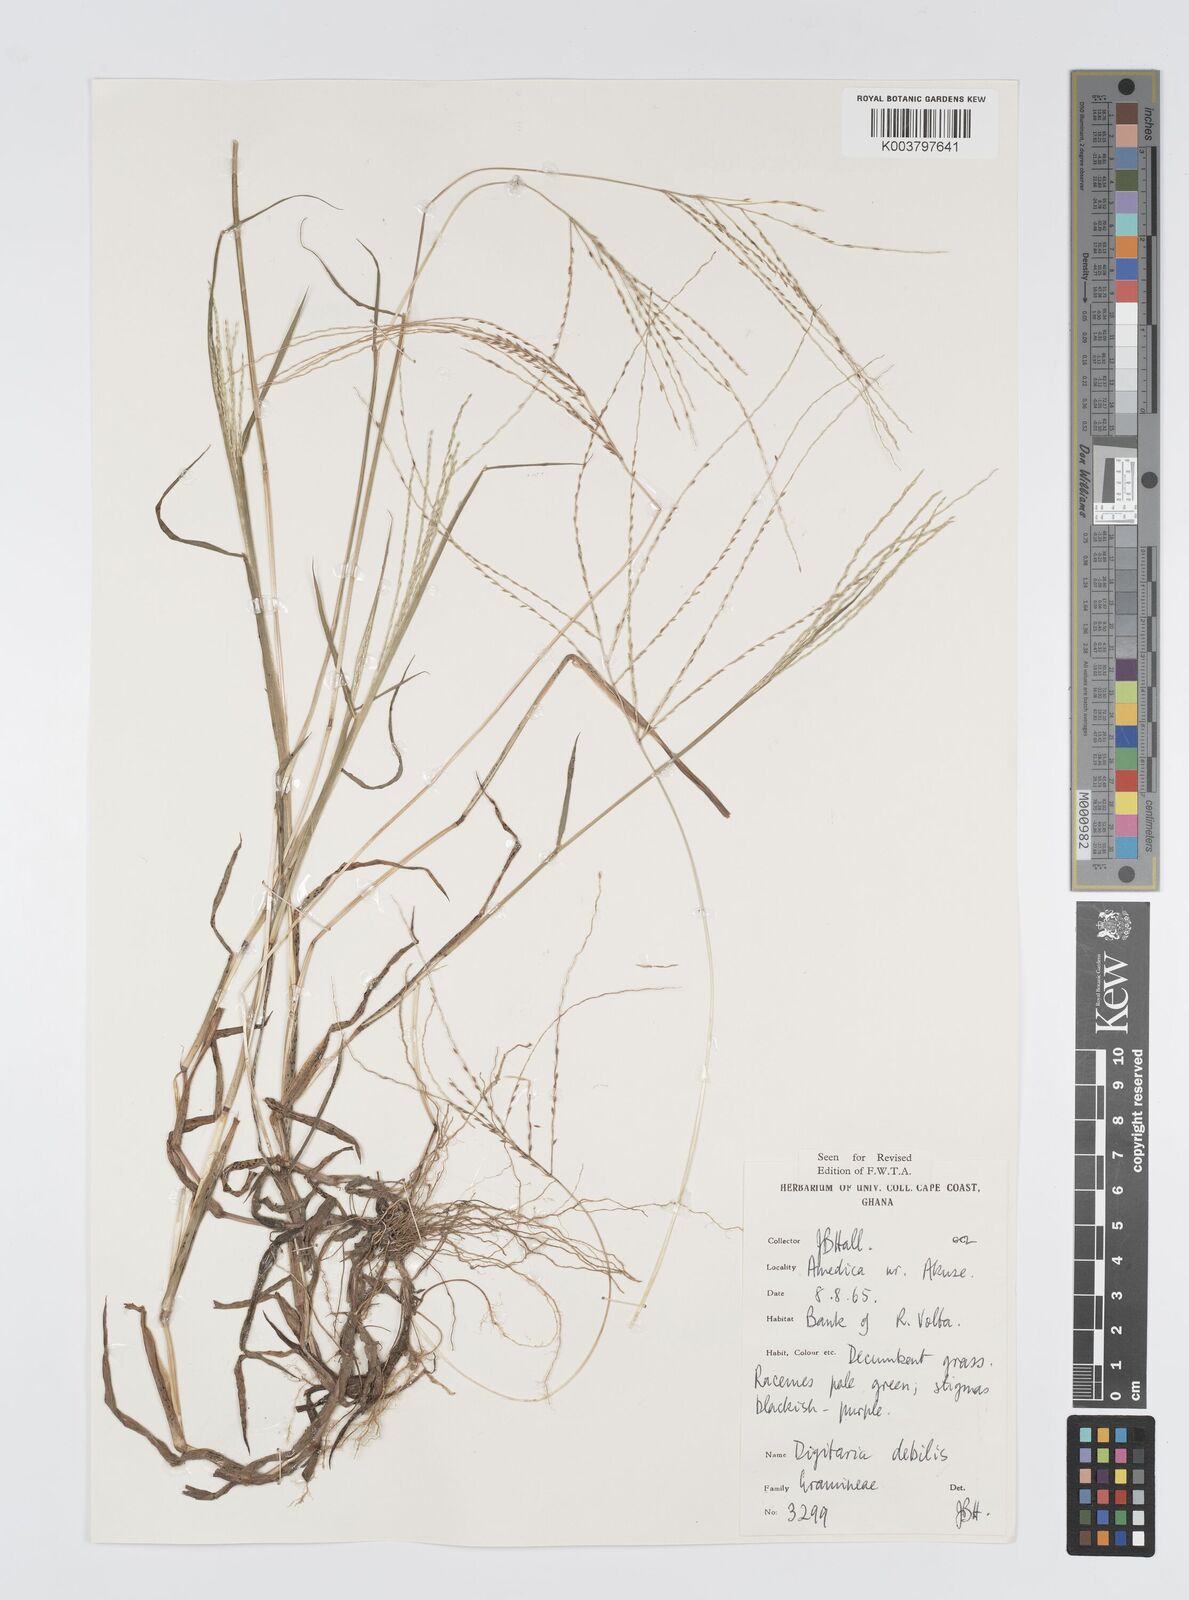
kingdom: Plantae
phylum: Tracheophyta
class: Liliopsida
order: Poales
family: Poaceae
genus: Digitaria
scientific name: Digitaria debilis
